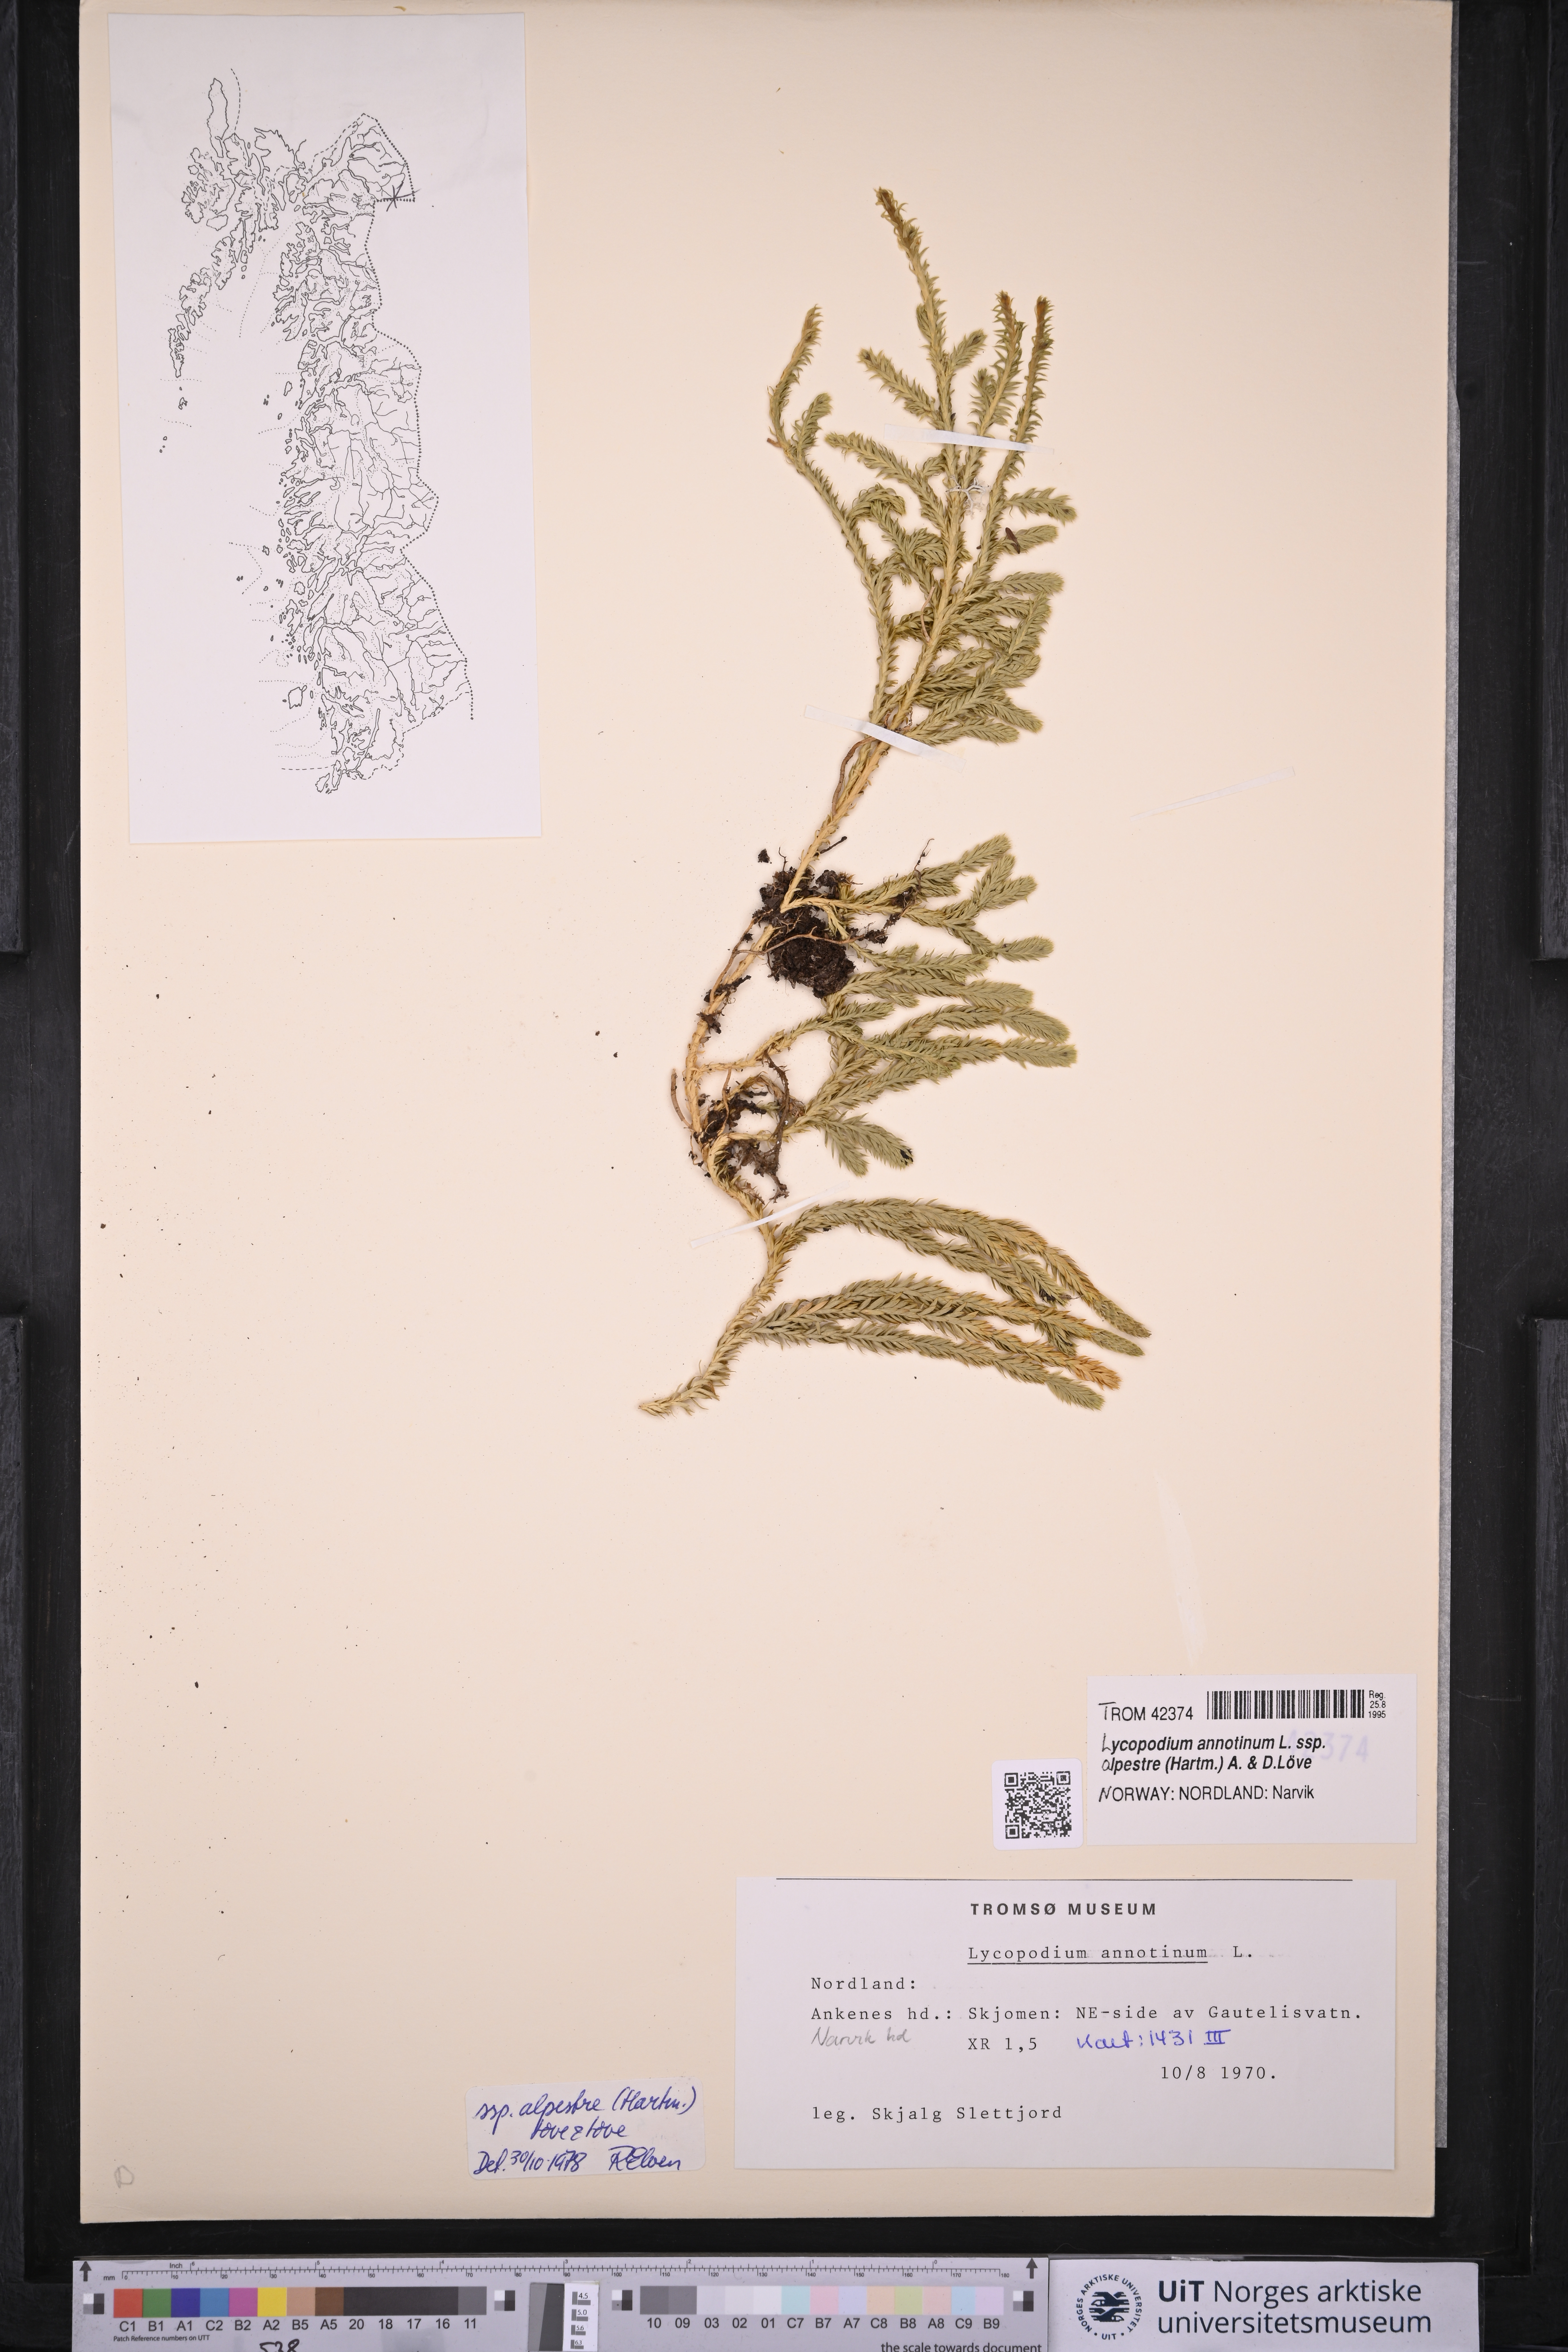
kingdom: Plantae
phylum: Tracheophyta
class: Lycopodiopsida
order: Lycopodiales
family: Lycopodiaceae
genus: Spinulum
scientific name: Spinulum annotinum
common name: Interrupted club-moss
